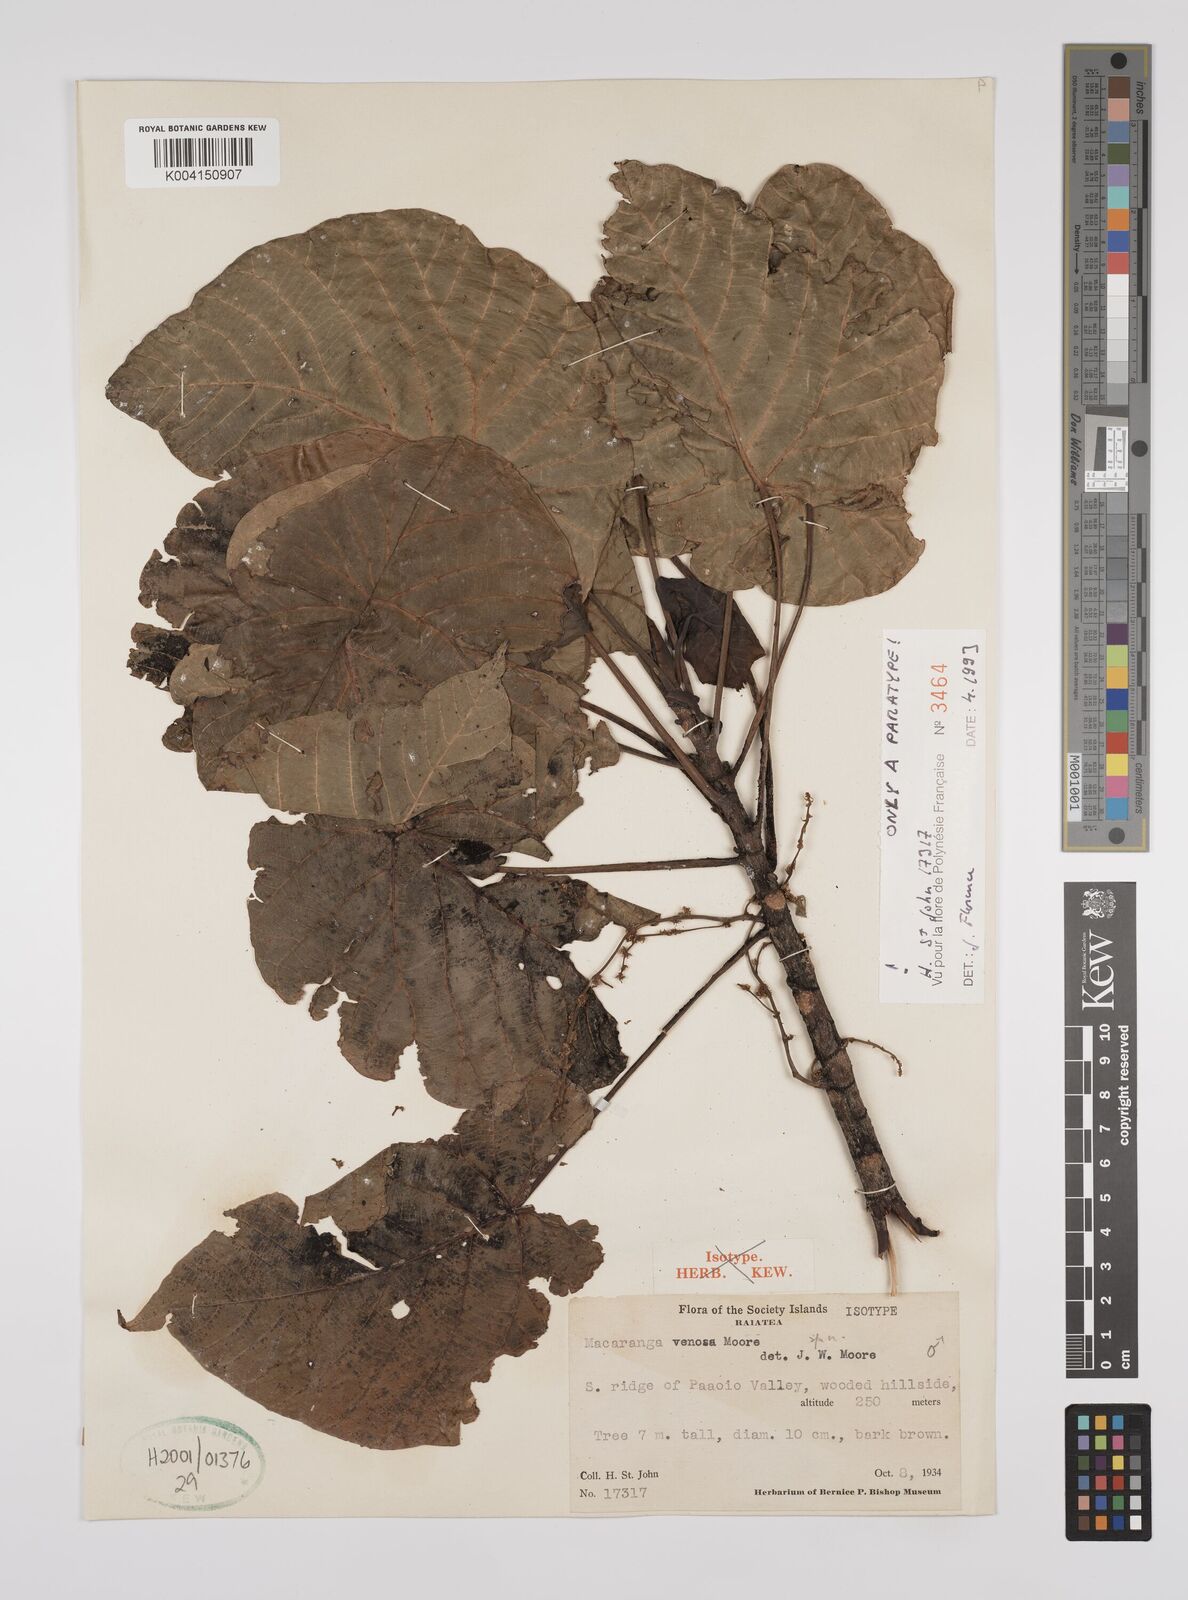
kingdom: Plantae
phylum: Tracheophyta
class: Magnoliopsida
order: Malpighiales
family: Euphorbiaceae
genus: Macaranga
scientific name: Macaranga venosa
